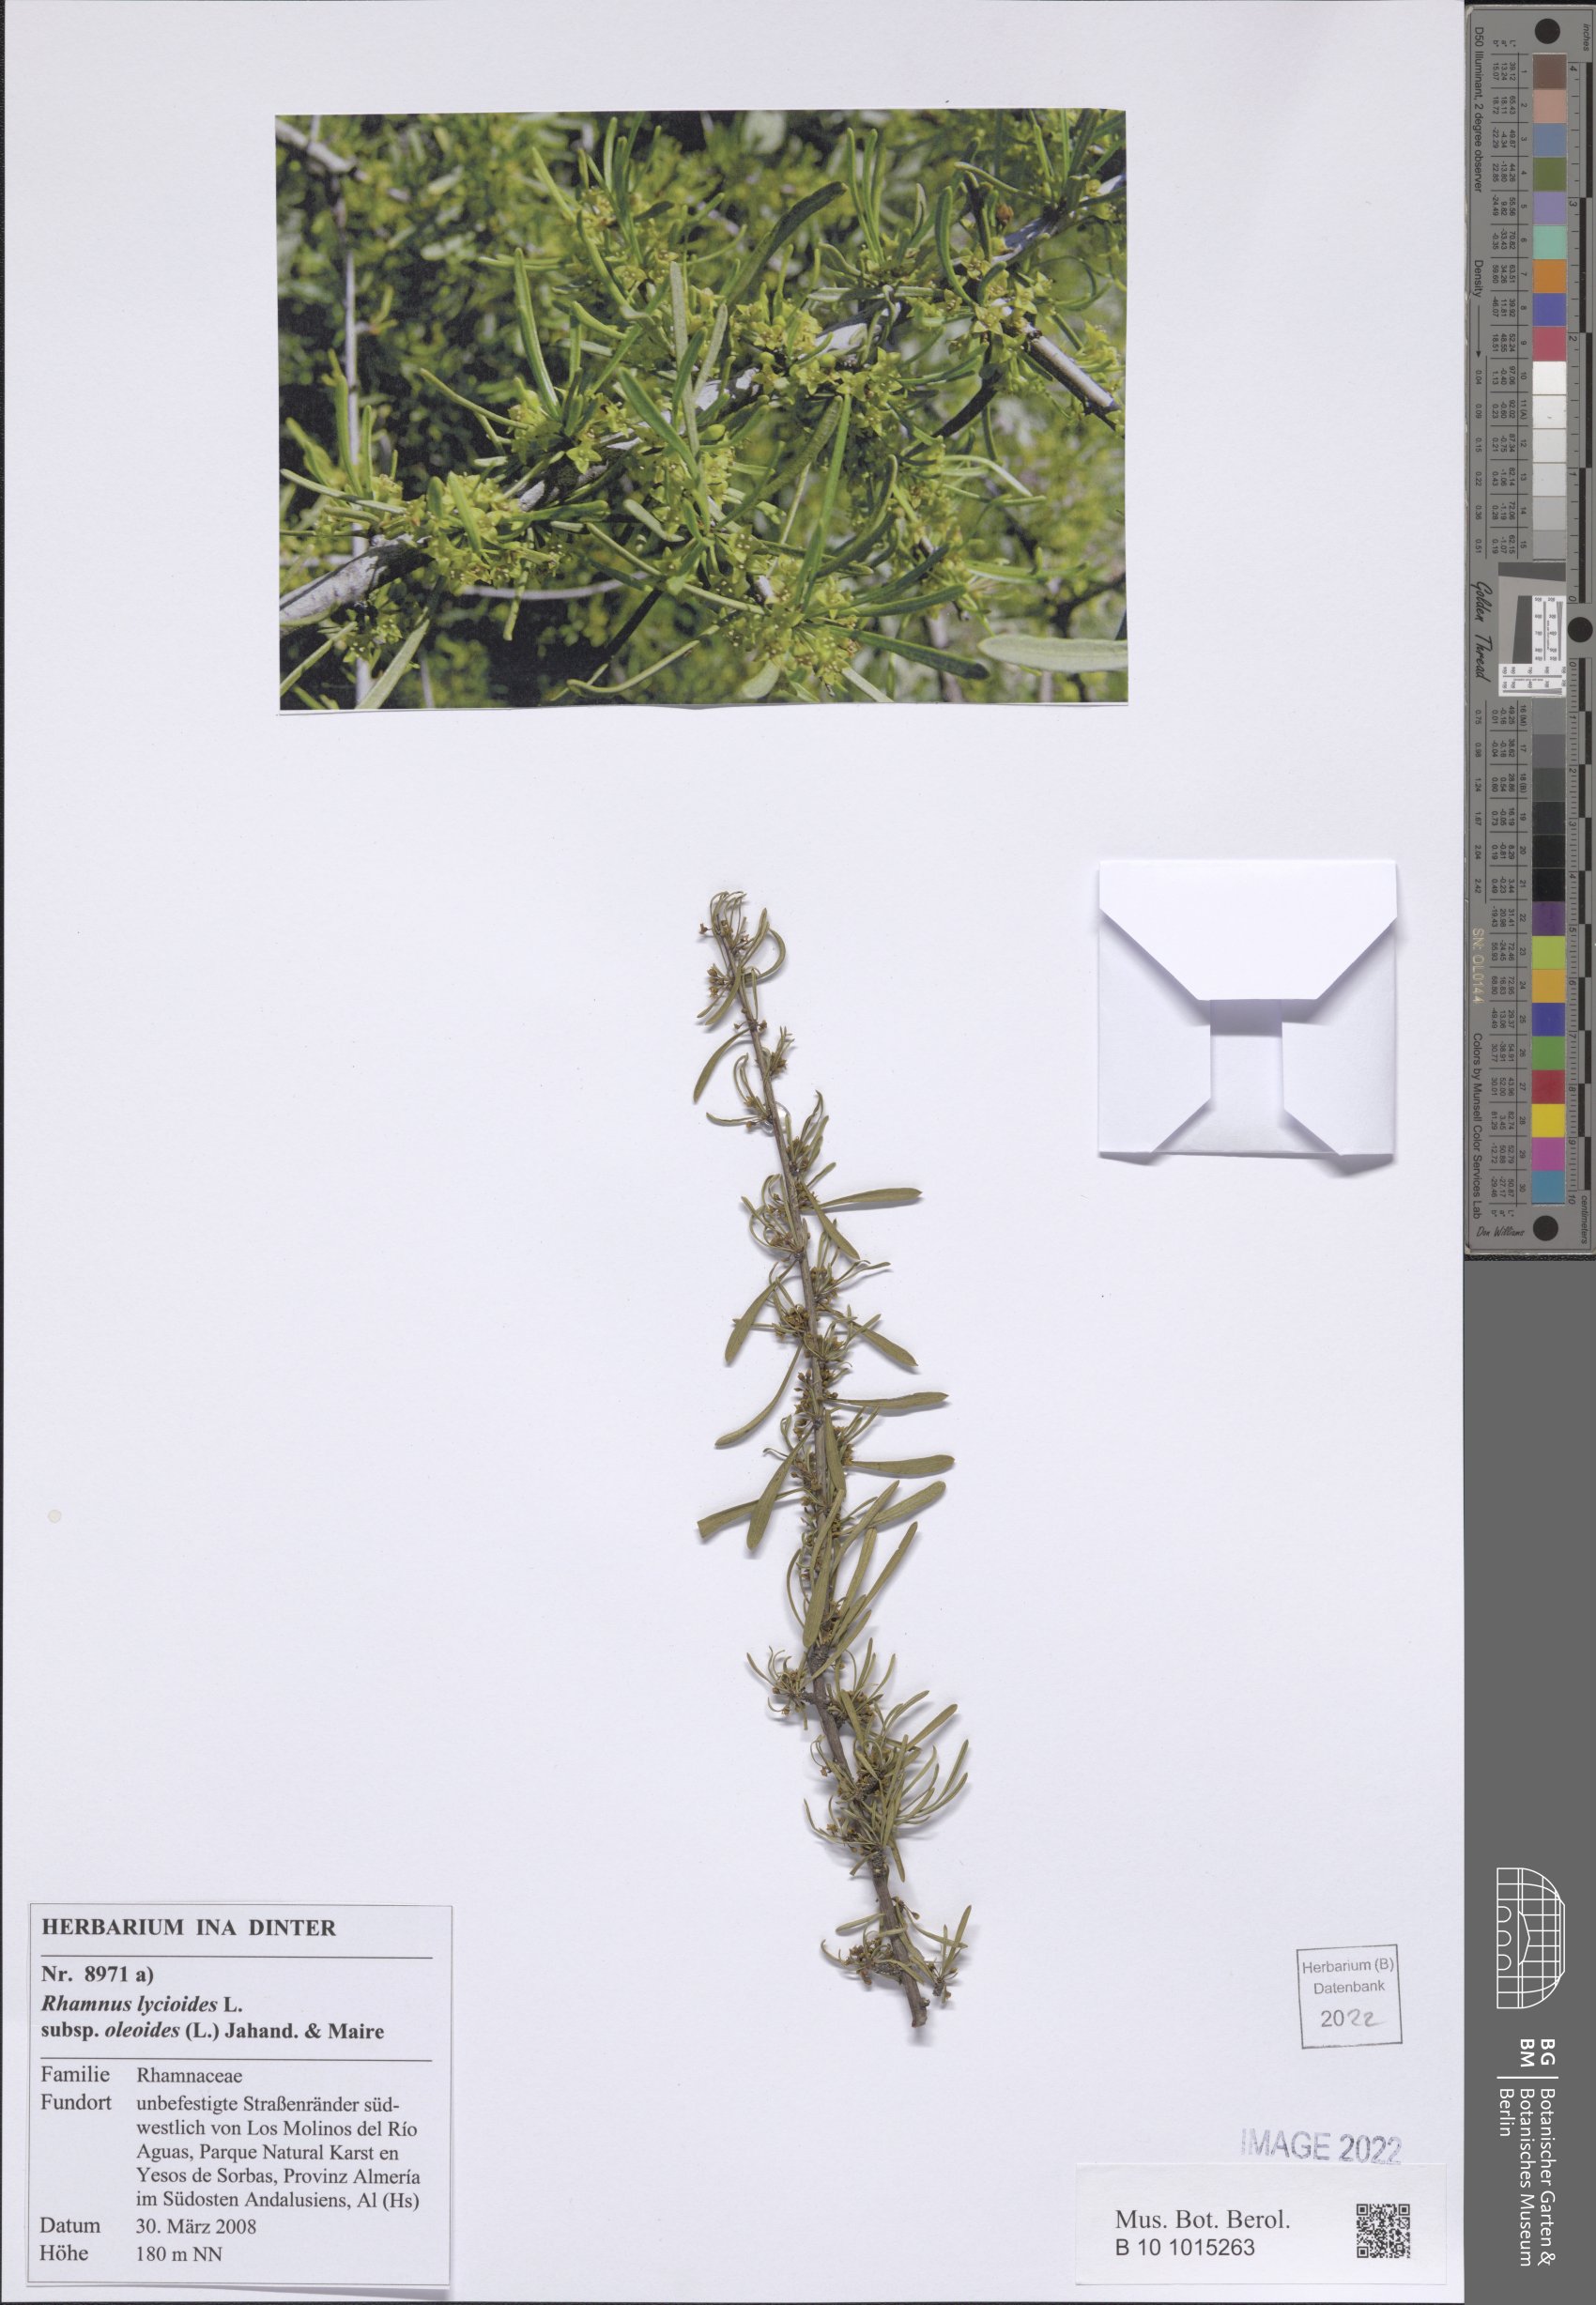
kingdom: Plantae
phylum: Tracheophyta
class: Magnoliopsida
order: Rosales
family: Rhamnaceae
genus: Rhamnus
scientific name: Rhamnus oleoides
